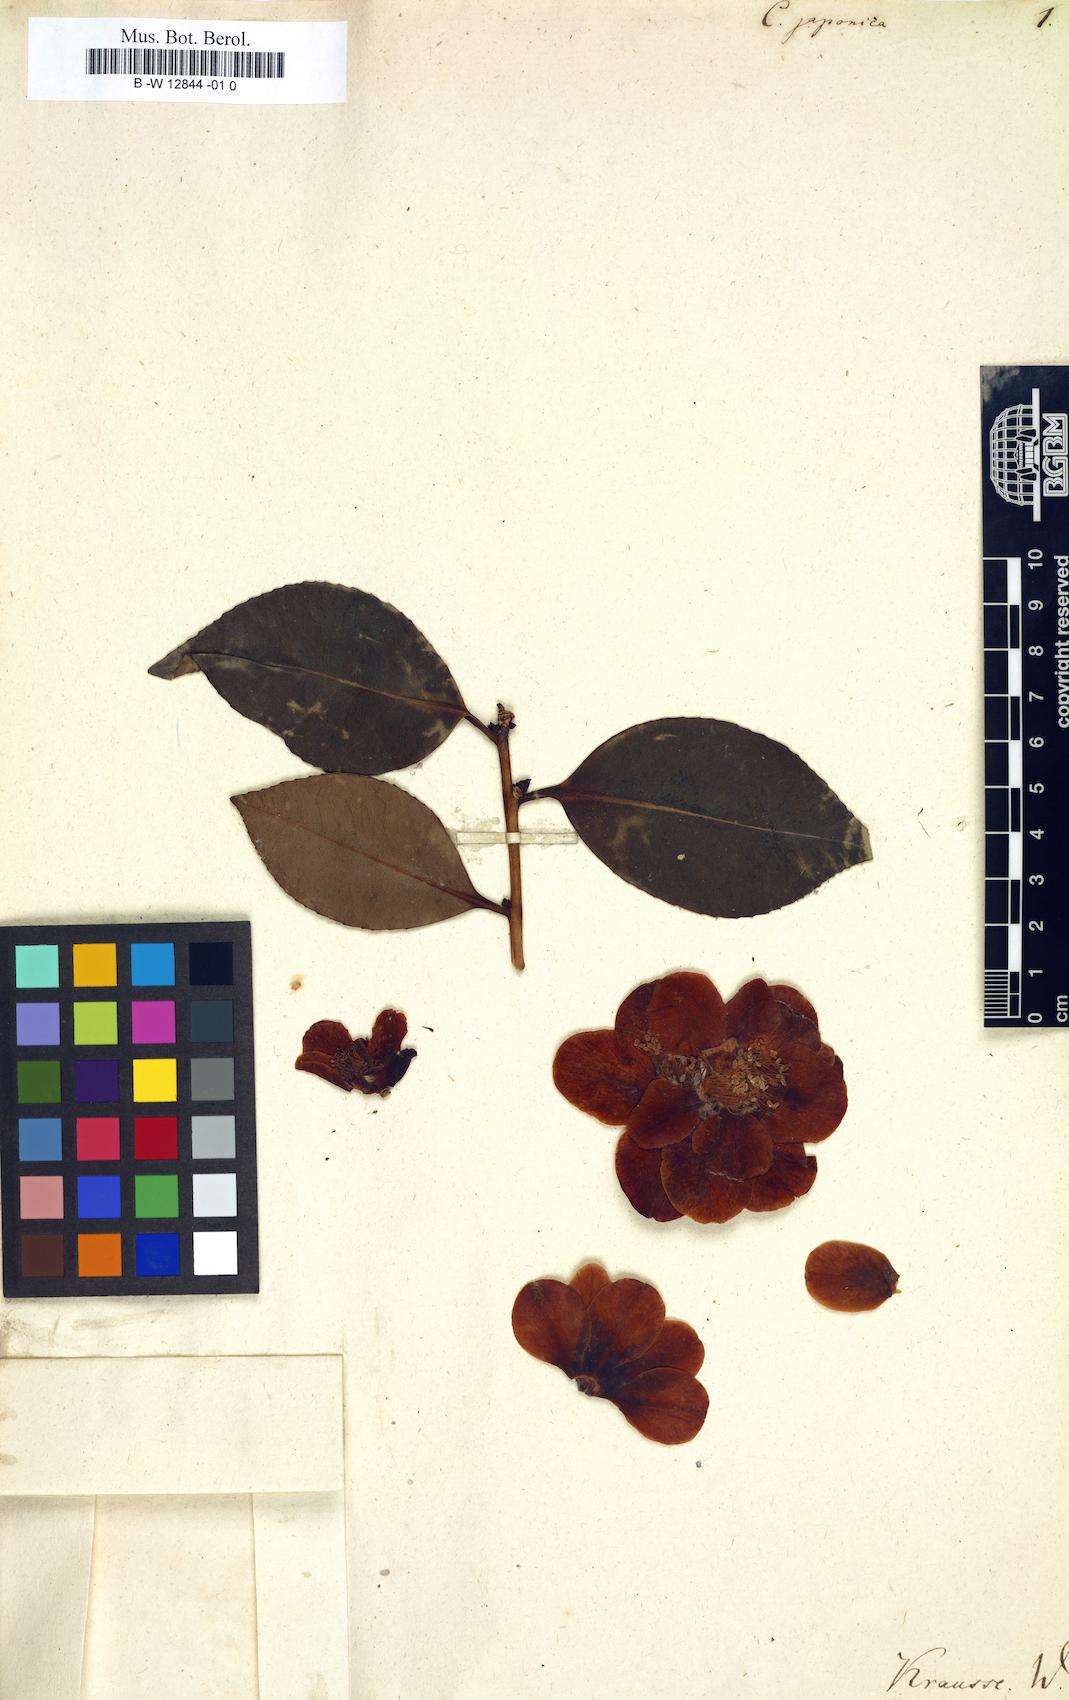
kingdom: Plantae
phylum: Tracheophyta
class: Magnoliopsida
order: Ericales
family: Theaceae
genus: Camellia
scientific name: Camellia japonica
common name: Camellia
